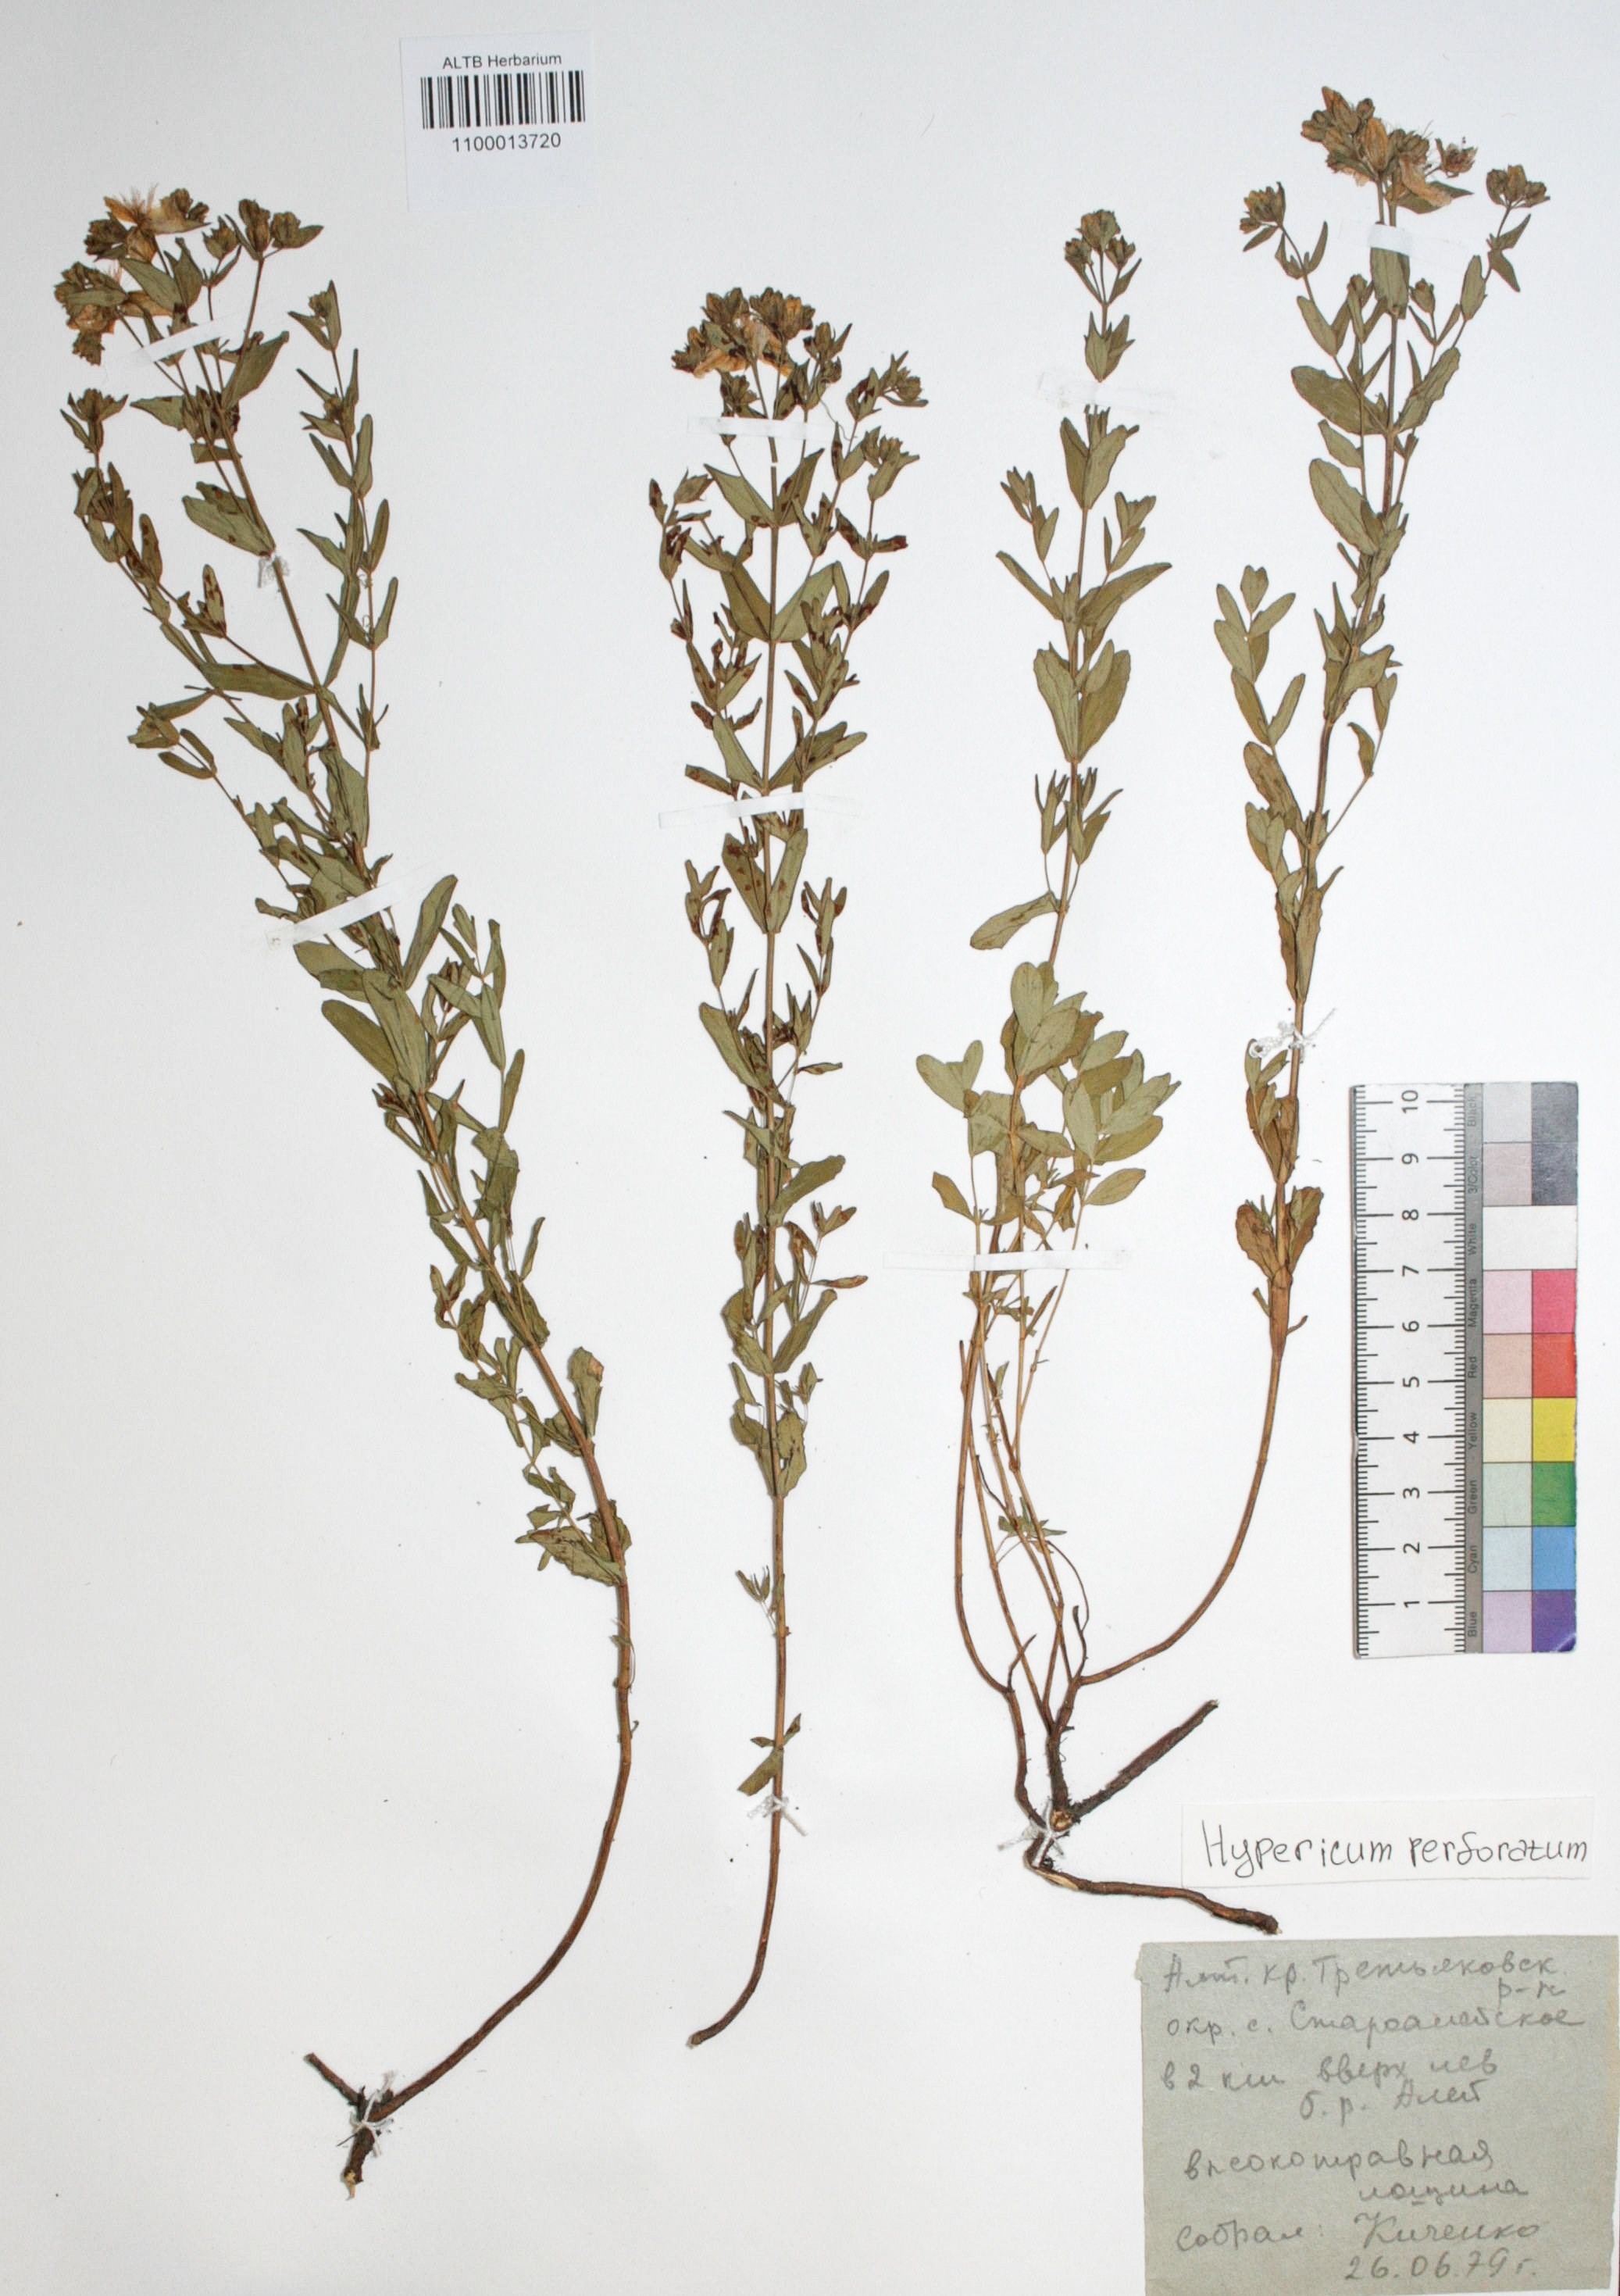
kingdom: Plantae
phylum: Tracheophyta
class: Magnoliopsida
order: Malpighiales
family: Hypericaceae
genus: Hypericum
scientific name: Hypericum perforatum
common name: Common st. johnswort
